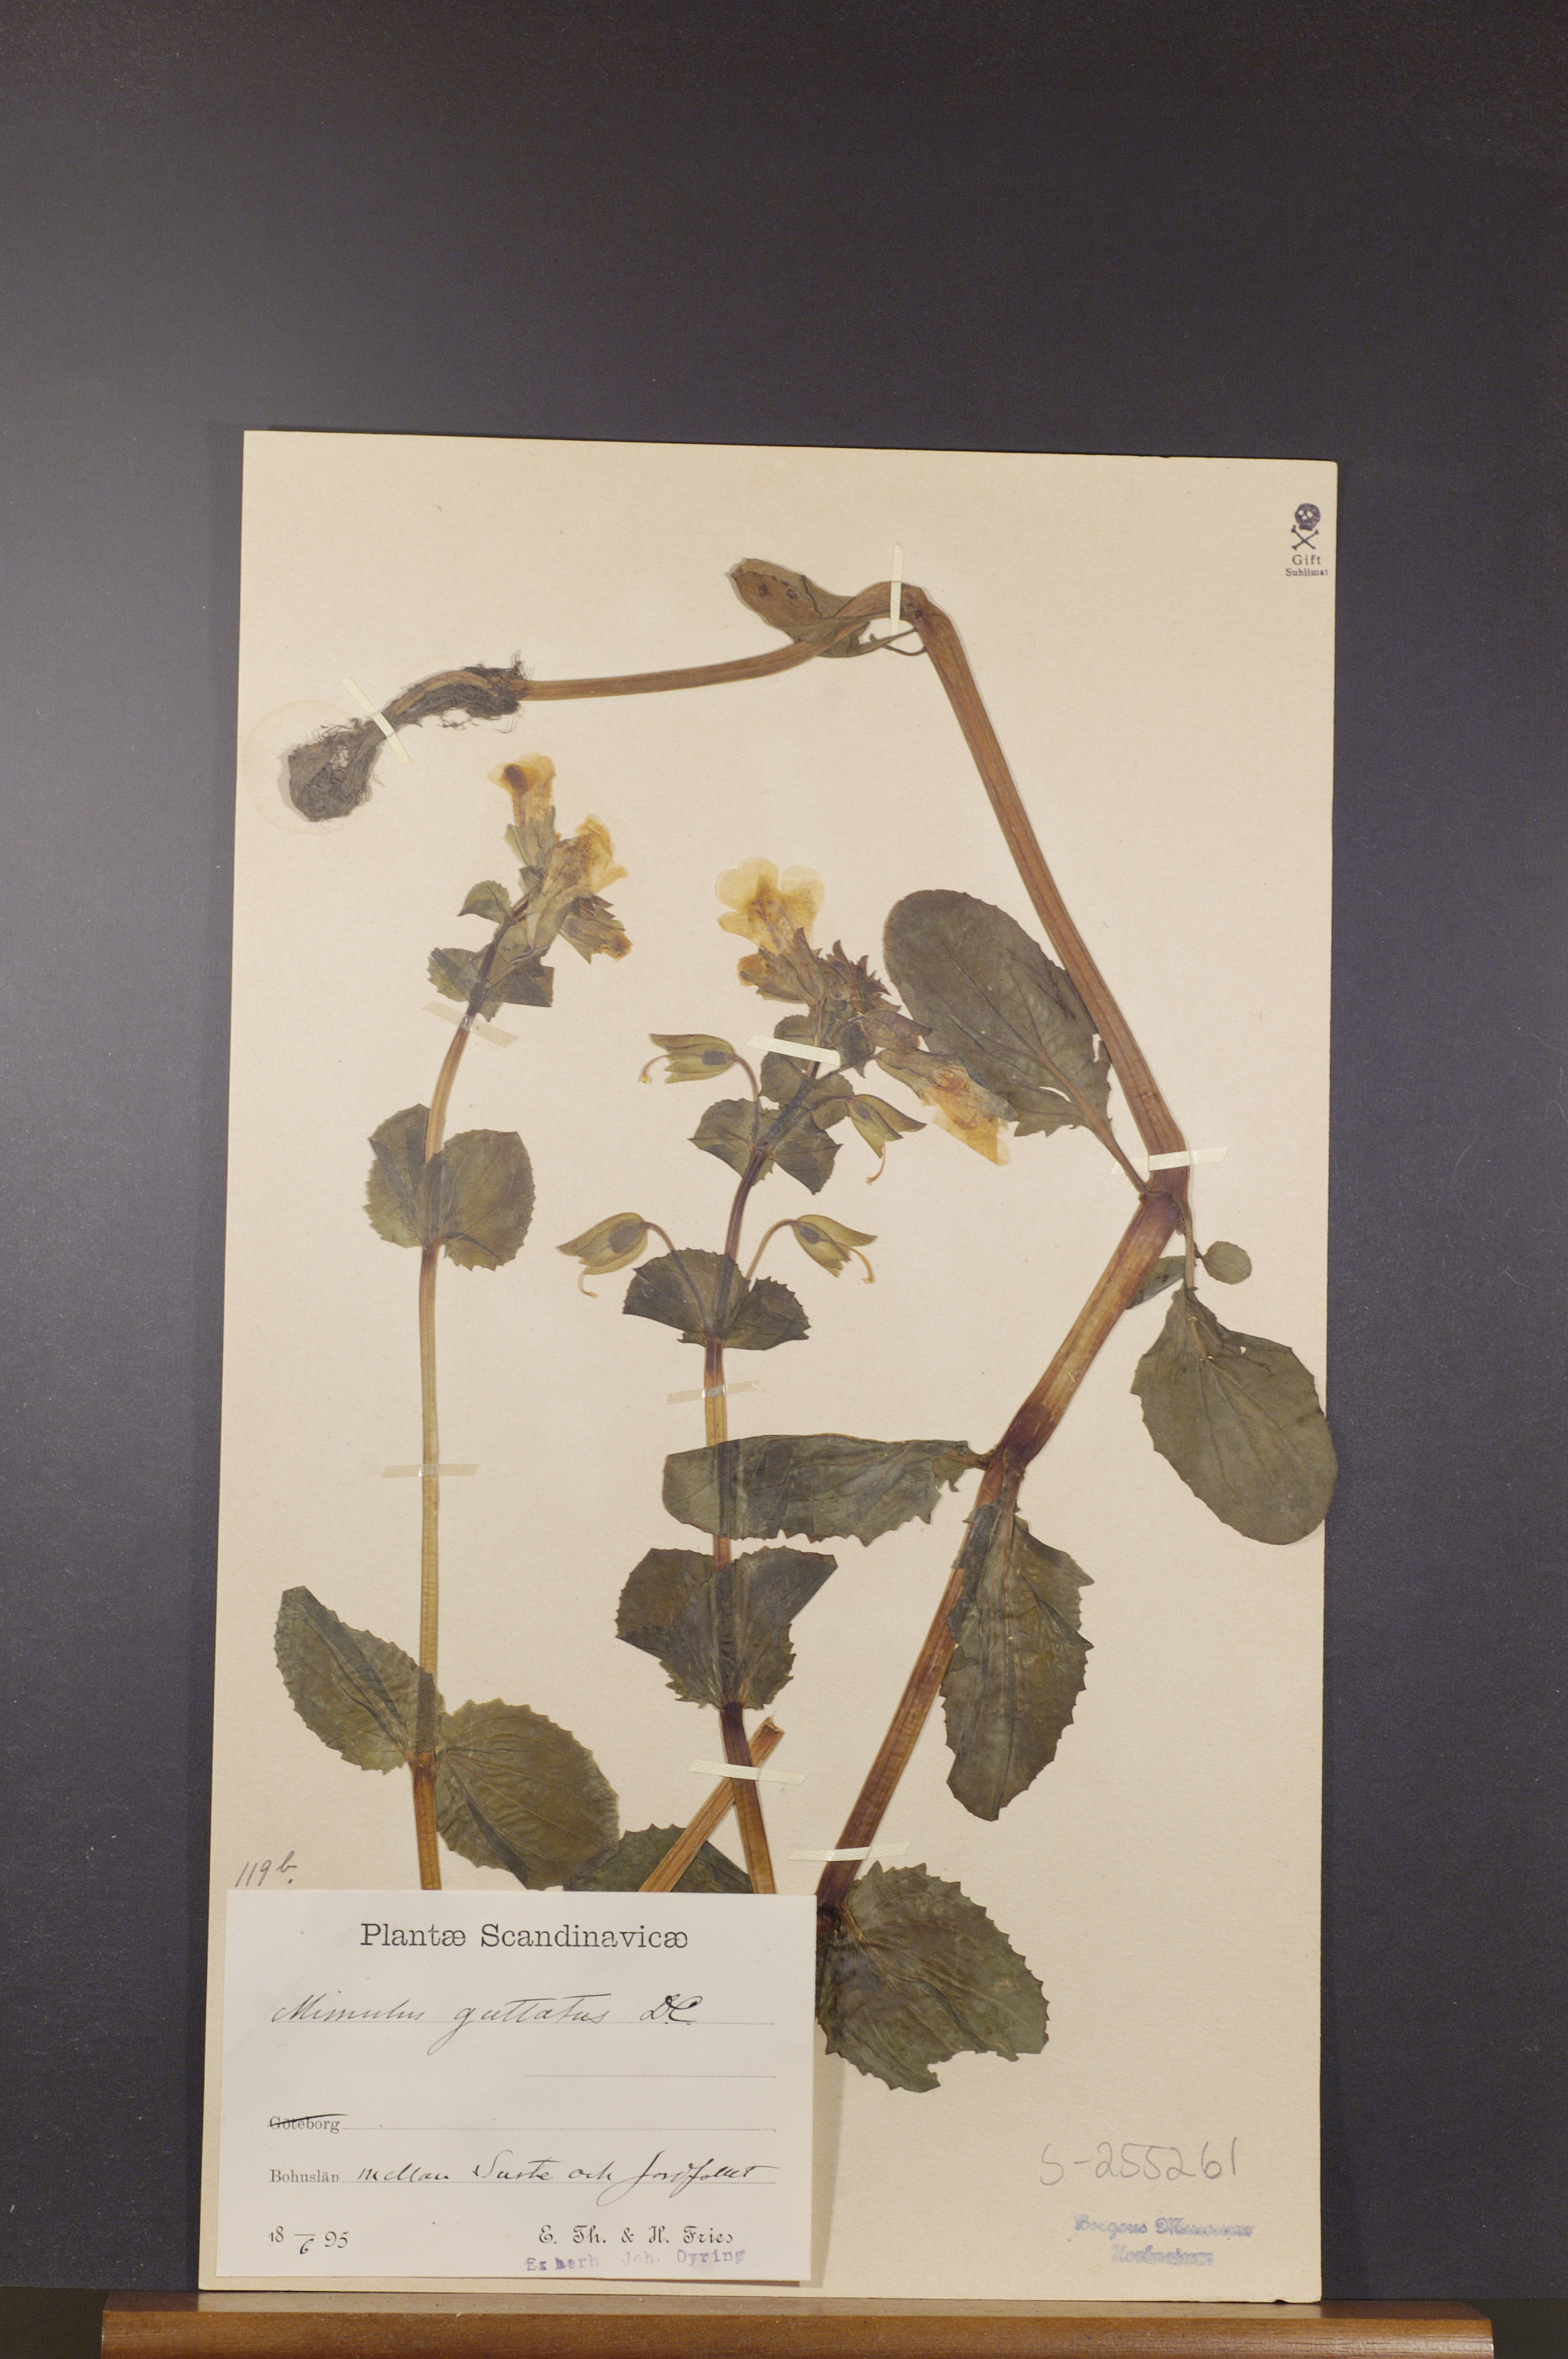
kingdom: Plantae
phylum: Tracheophyta
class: Magnoliopsida
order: Lamiales
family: Phrymaceae
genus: Erythranthe
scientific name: Erythranthe guttata
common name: Monkeyflower
